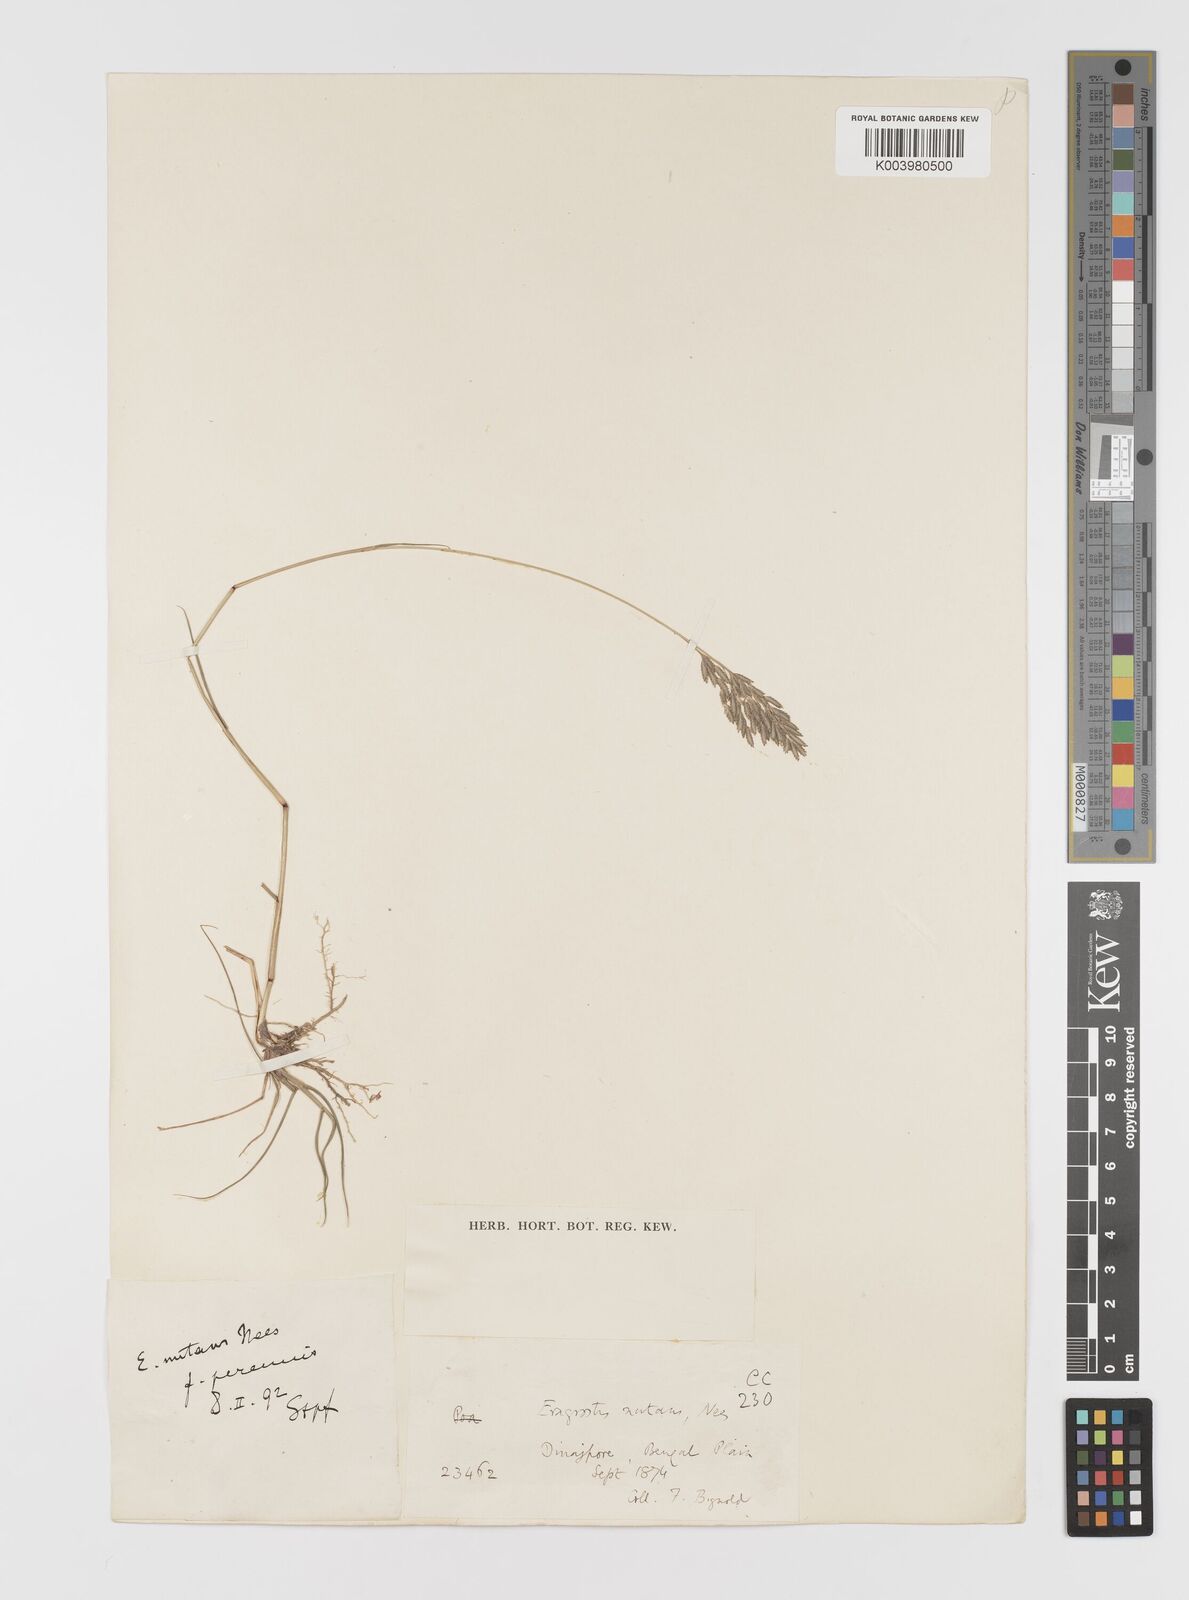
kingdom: Plantae
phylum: Tracheophyta
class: Liliopsida
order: Poales
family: Poaceae
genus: Eragrostis
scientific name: Eragrostis
